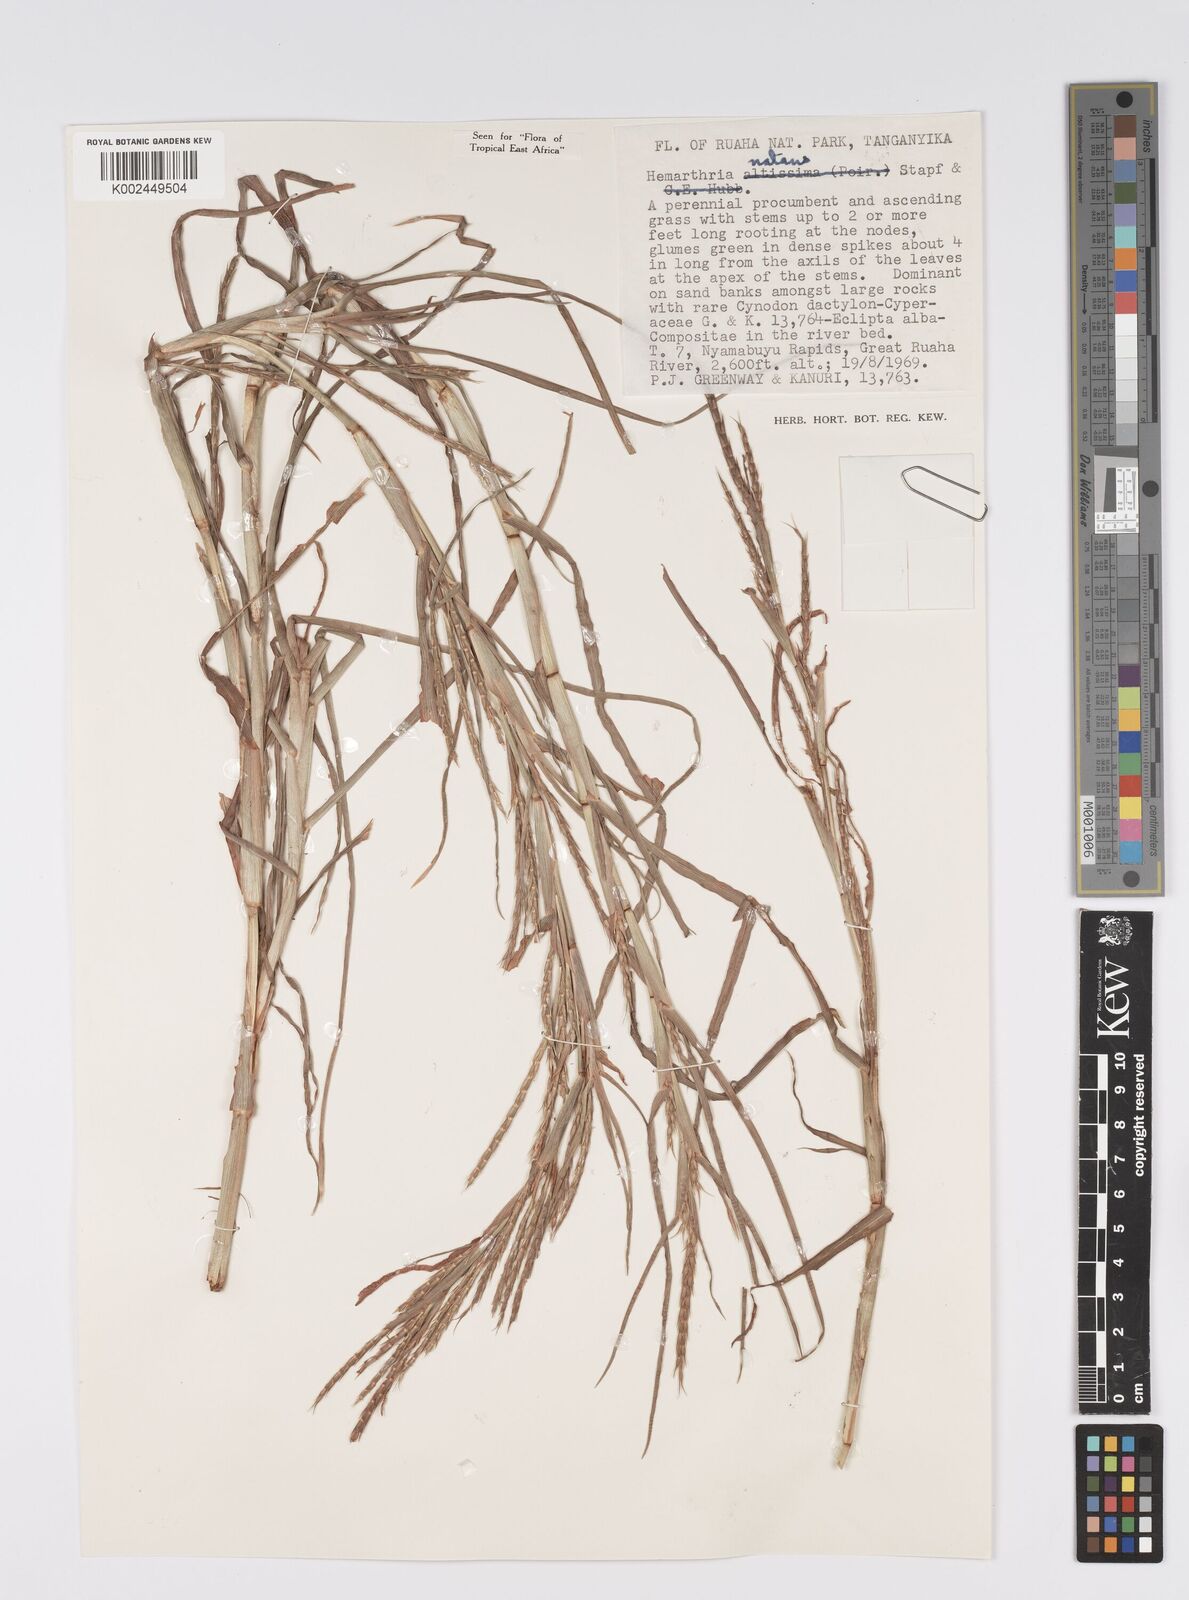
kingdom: Plantae
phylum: Tracheophyta
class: Liliopsida
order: Poales
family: Poaceae
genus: Hemarthria
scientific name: Hemarthria natans
